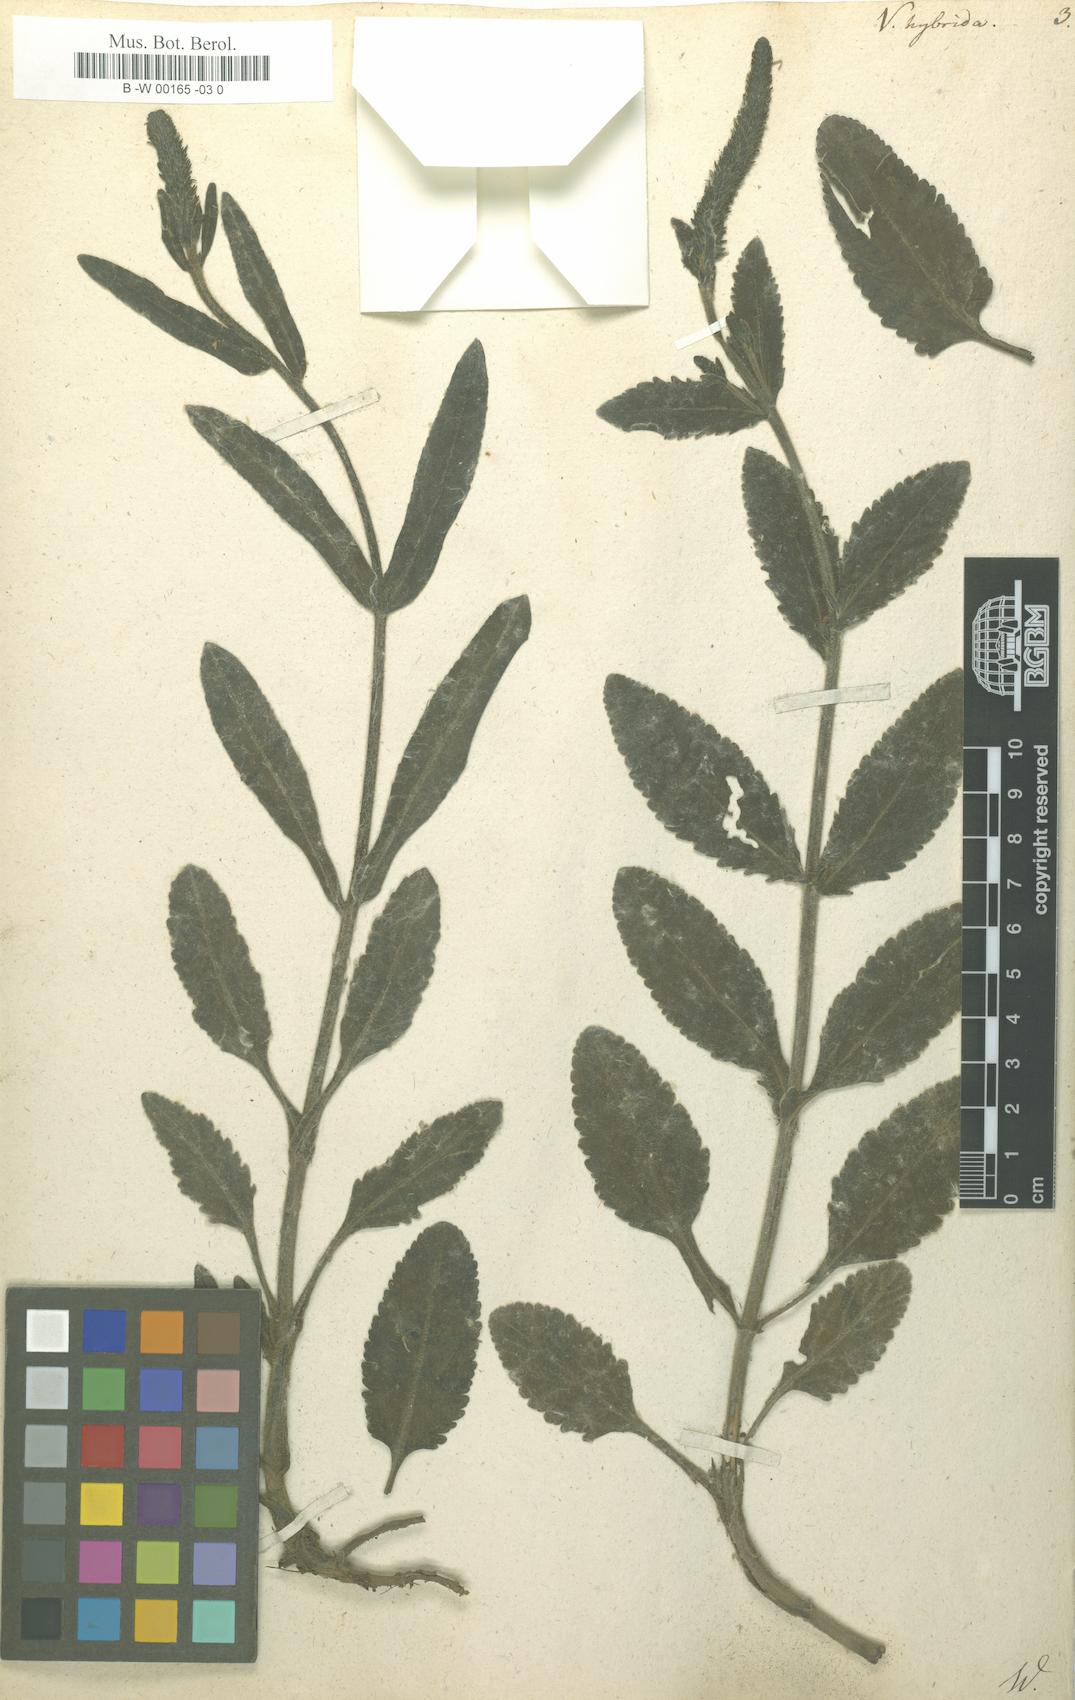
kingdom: Plantae
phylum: Tracheophyta
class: Magnoliopsida
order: Lamiales
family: Plantaginaceae
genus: Veronica
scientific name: Veronica spicata
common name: Spiked speedwell
